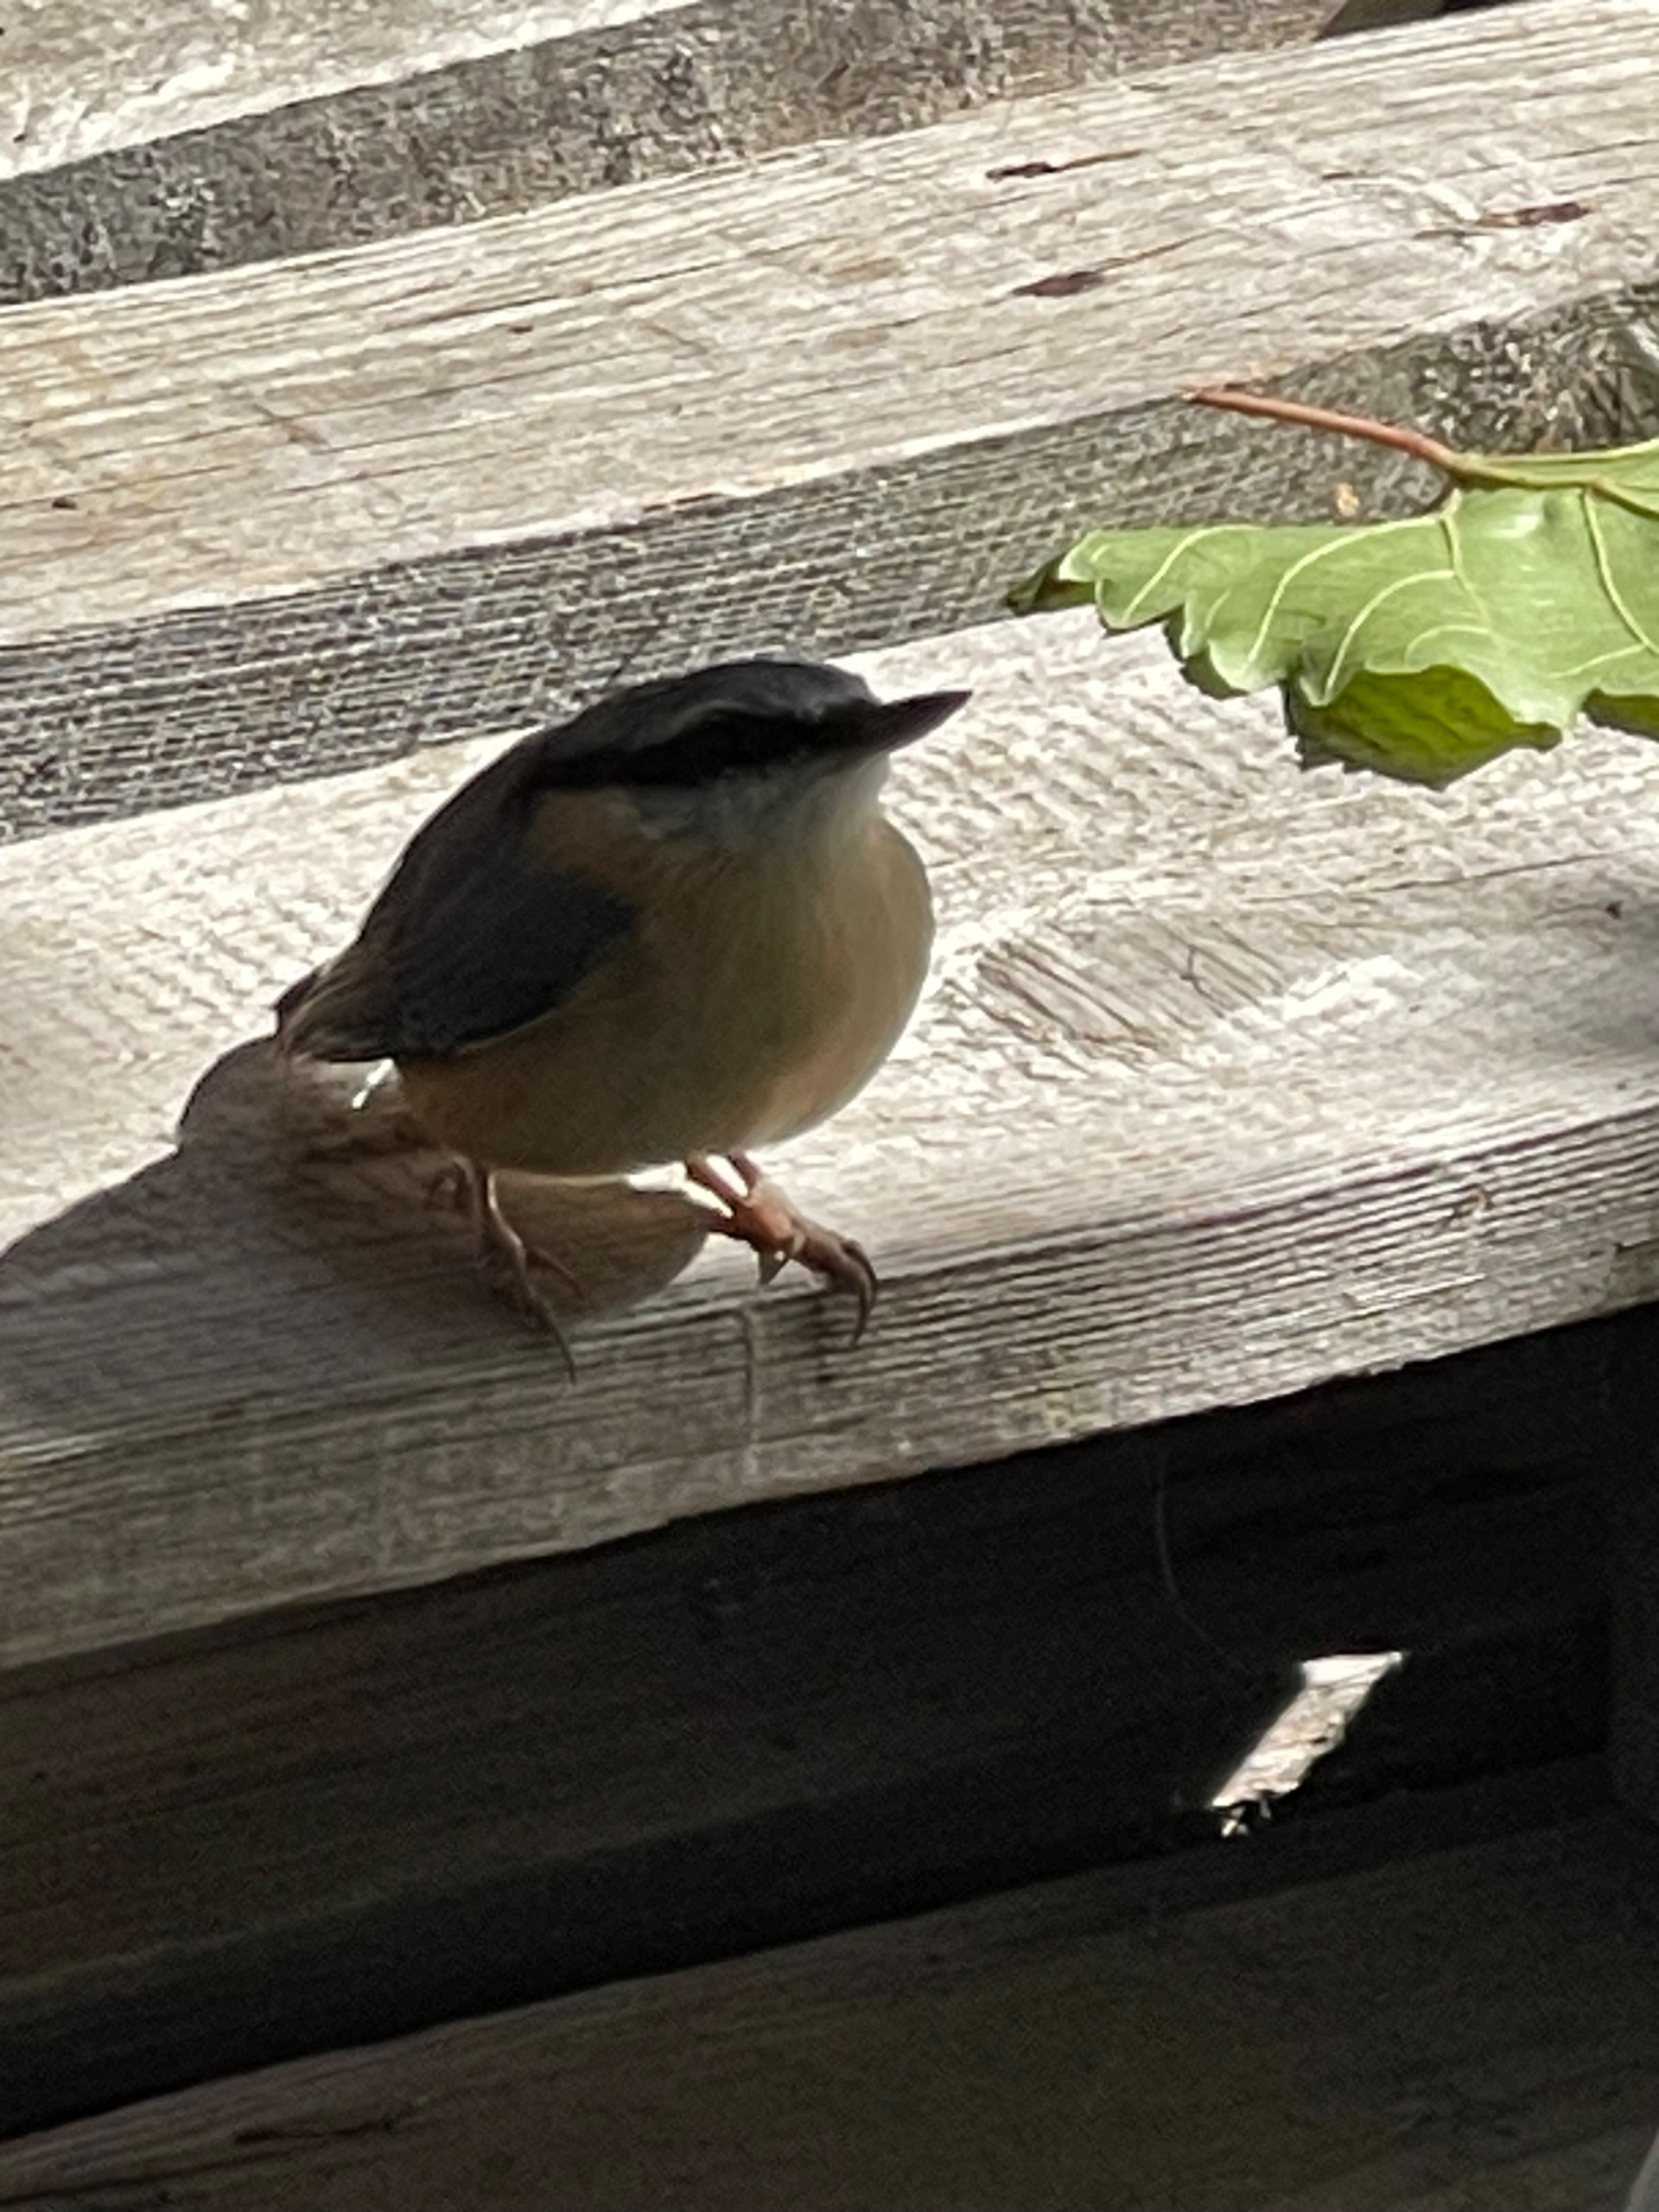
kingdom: Animalia
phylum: Chordata
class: Aves
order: Passeriformes
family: Sittidae
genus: Sitta
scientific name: Sitta europaea
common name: Spætmejse
